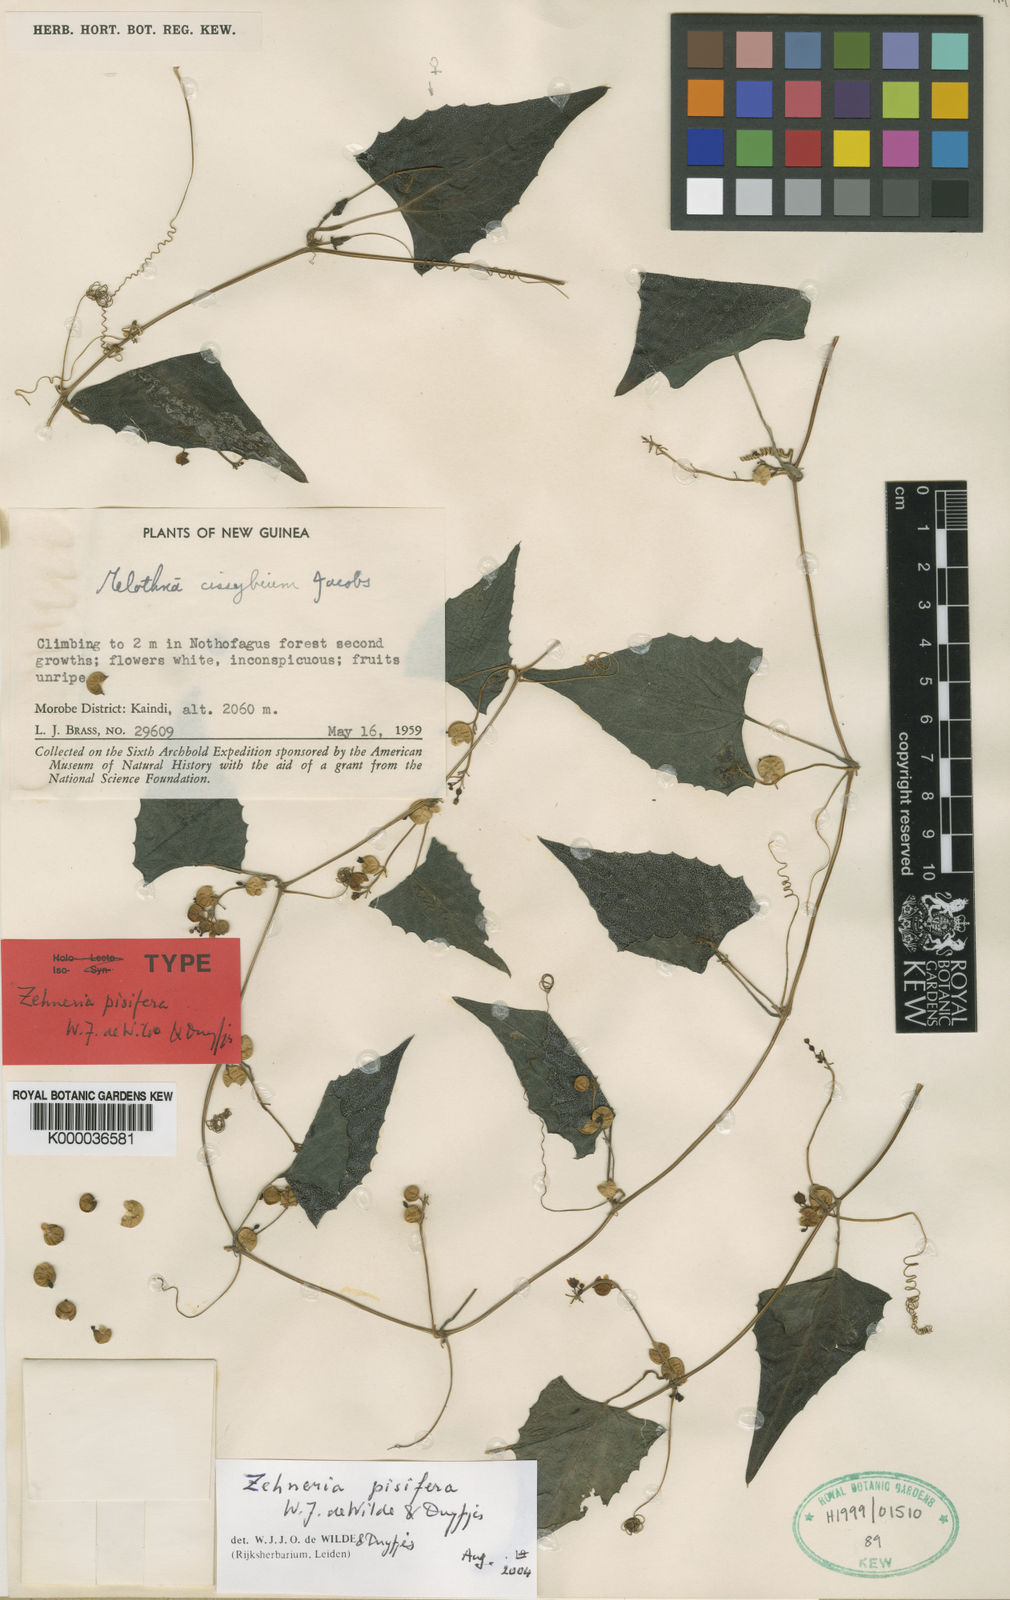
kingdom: Plantae
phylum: Tracheophyta
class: Magnoliopsida
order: Cucurbitales
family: Cucurbitaceae
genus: Zehneria
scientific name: Zehneria pisifera
